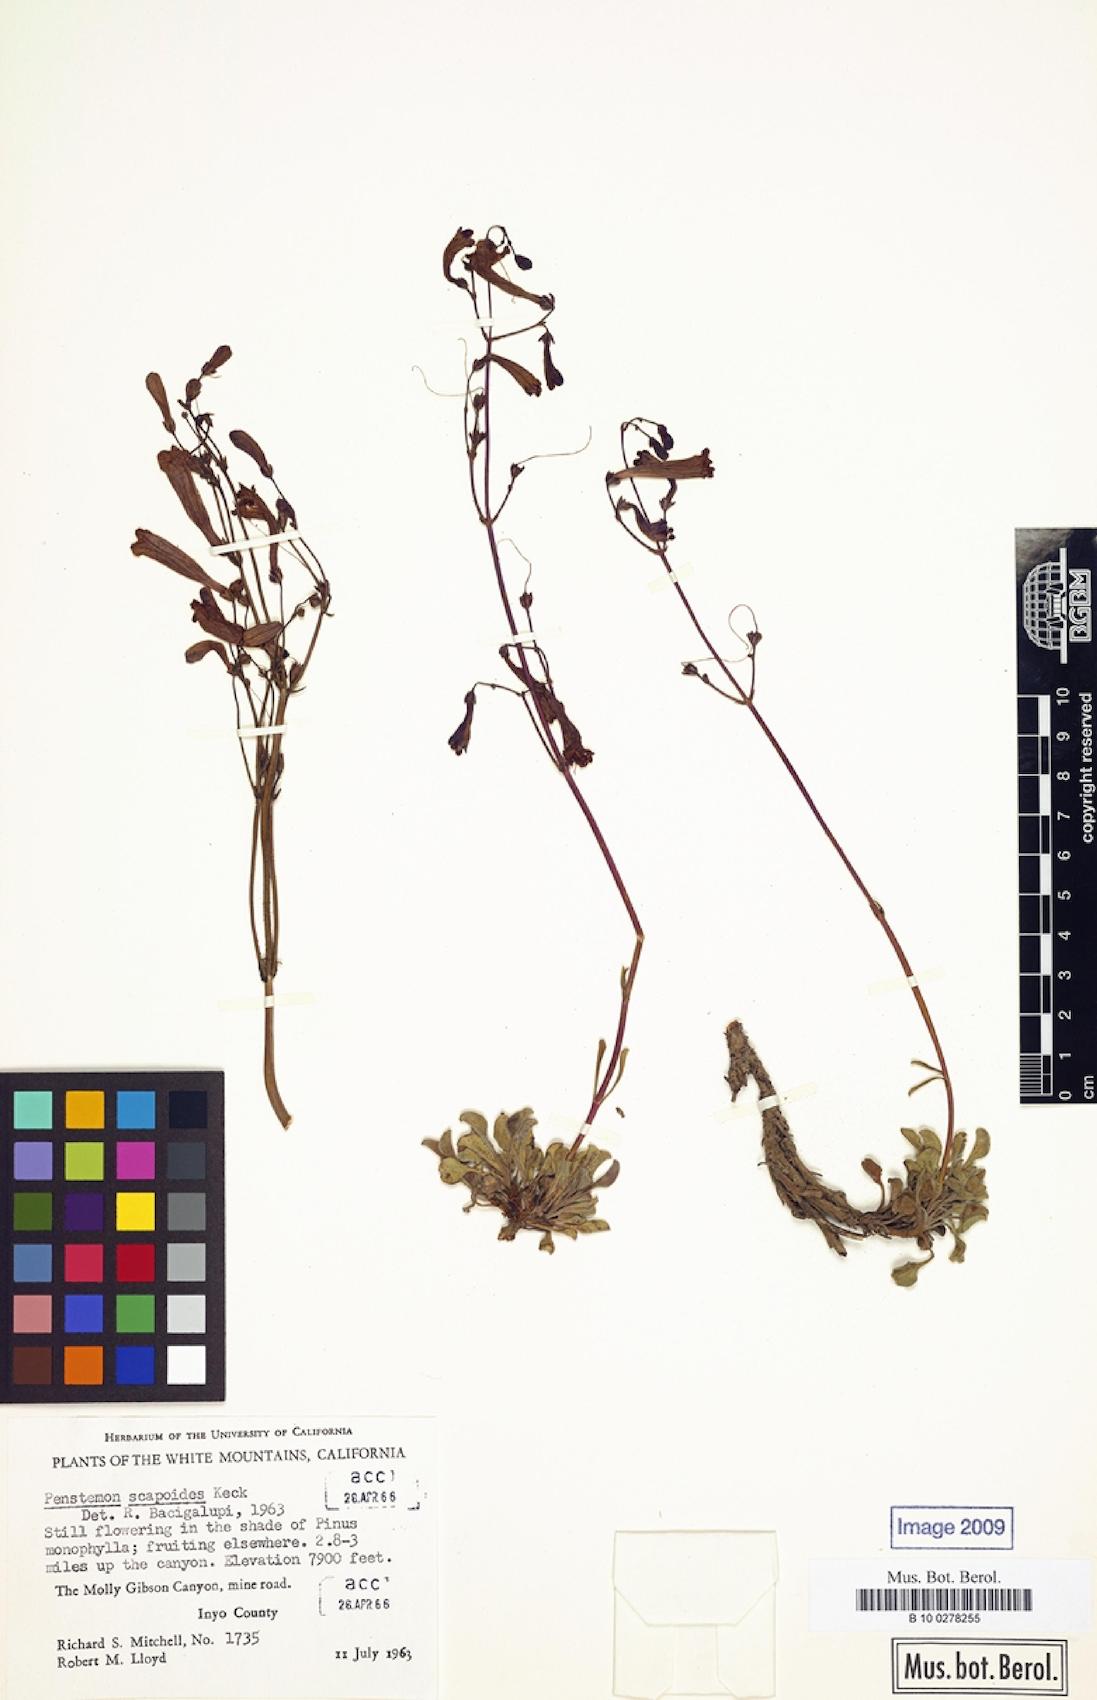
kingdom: Plantae
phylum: Tracheophyta
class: Magnoliopsida
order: Lamiales
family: Plantaginaceae
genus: Penstemon
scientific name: Penstemon scapoides
